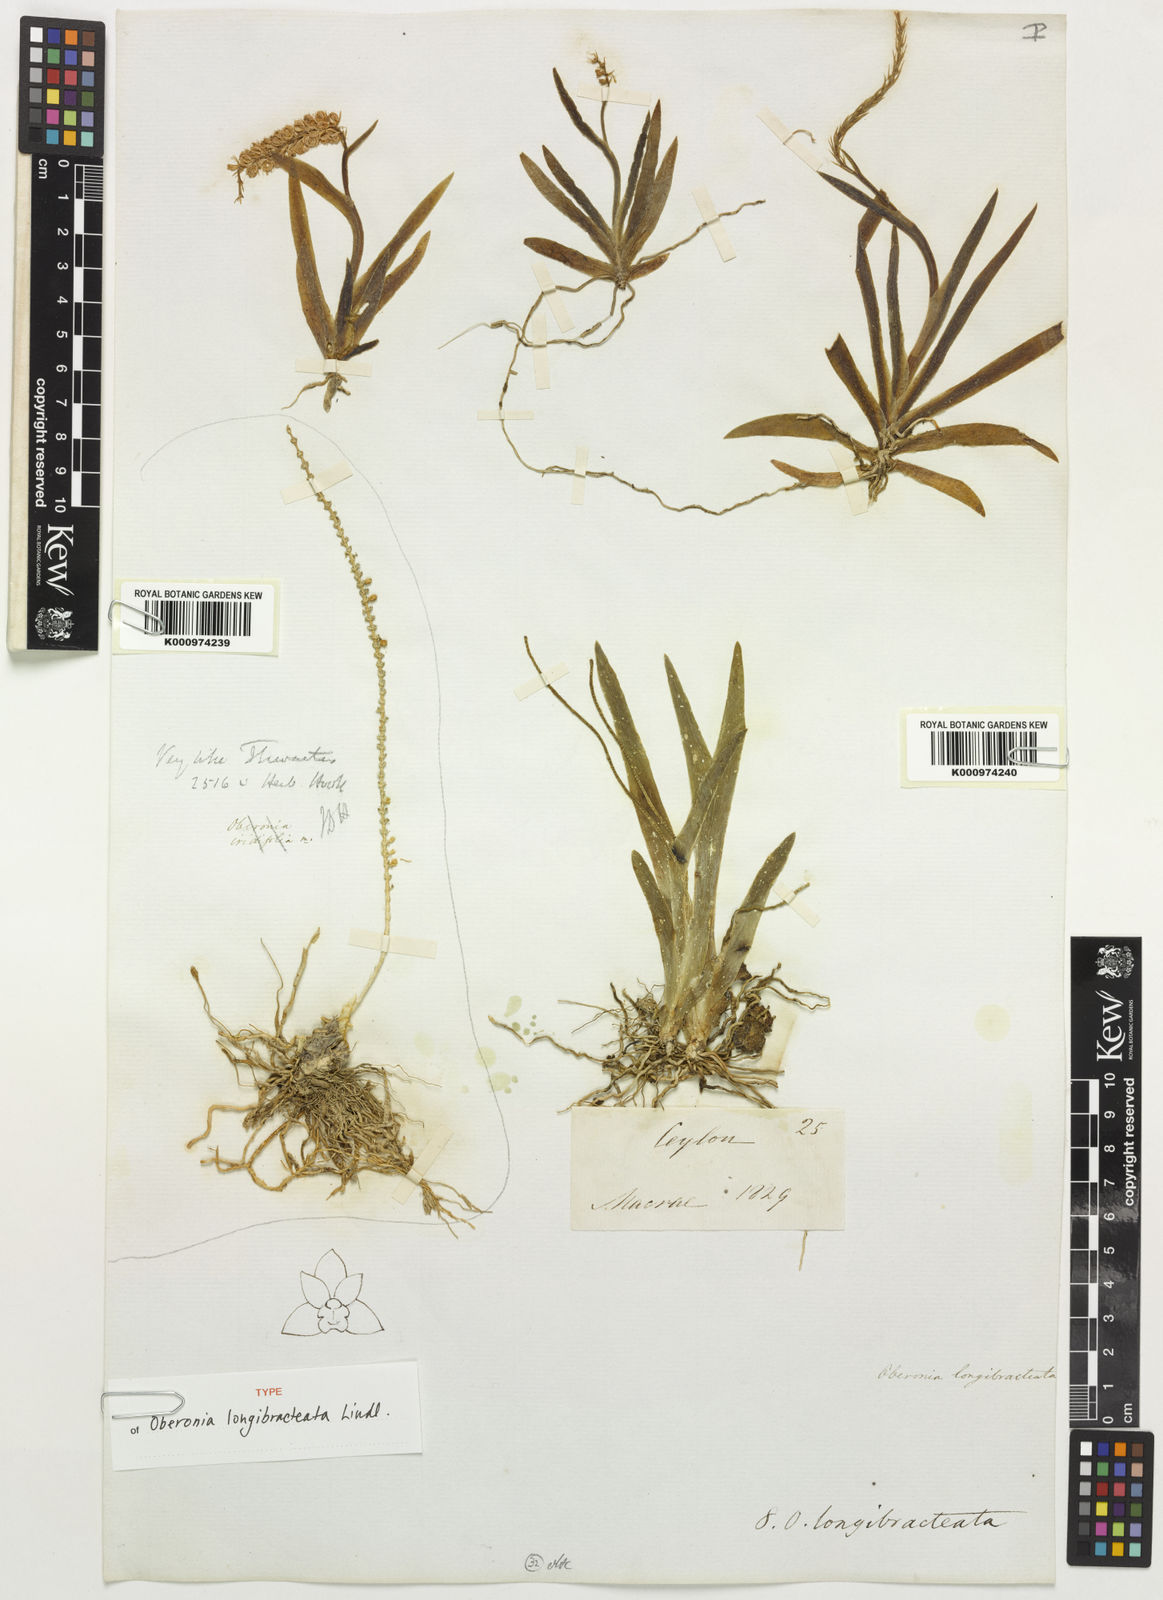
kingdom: Plantae
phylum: Tracheophyta
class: Liliopsida
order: Asparagales
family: Orchidaceae
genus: Oberonia
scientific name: Oberonia longibracteata
